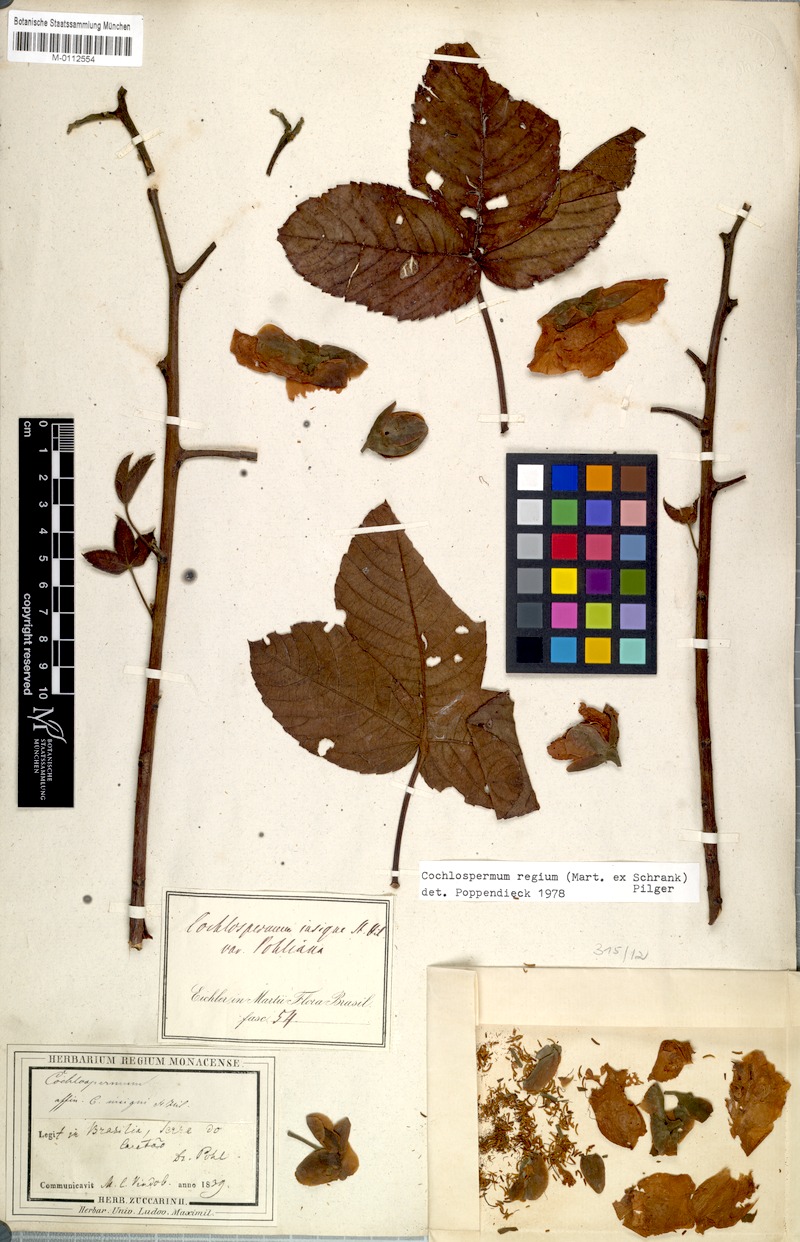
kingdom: Plantae
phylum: Tracheophyta
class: Magnoliopsida
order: Malvales
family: Cochlospermaceae
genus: Cochlospermum
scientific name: Cochlospermum regium
